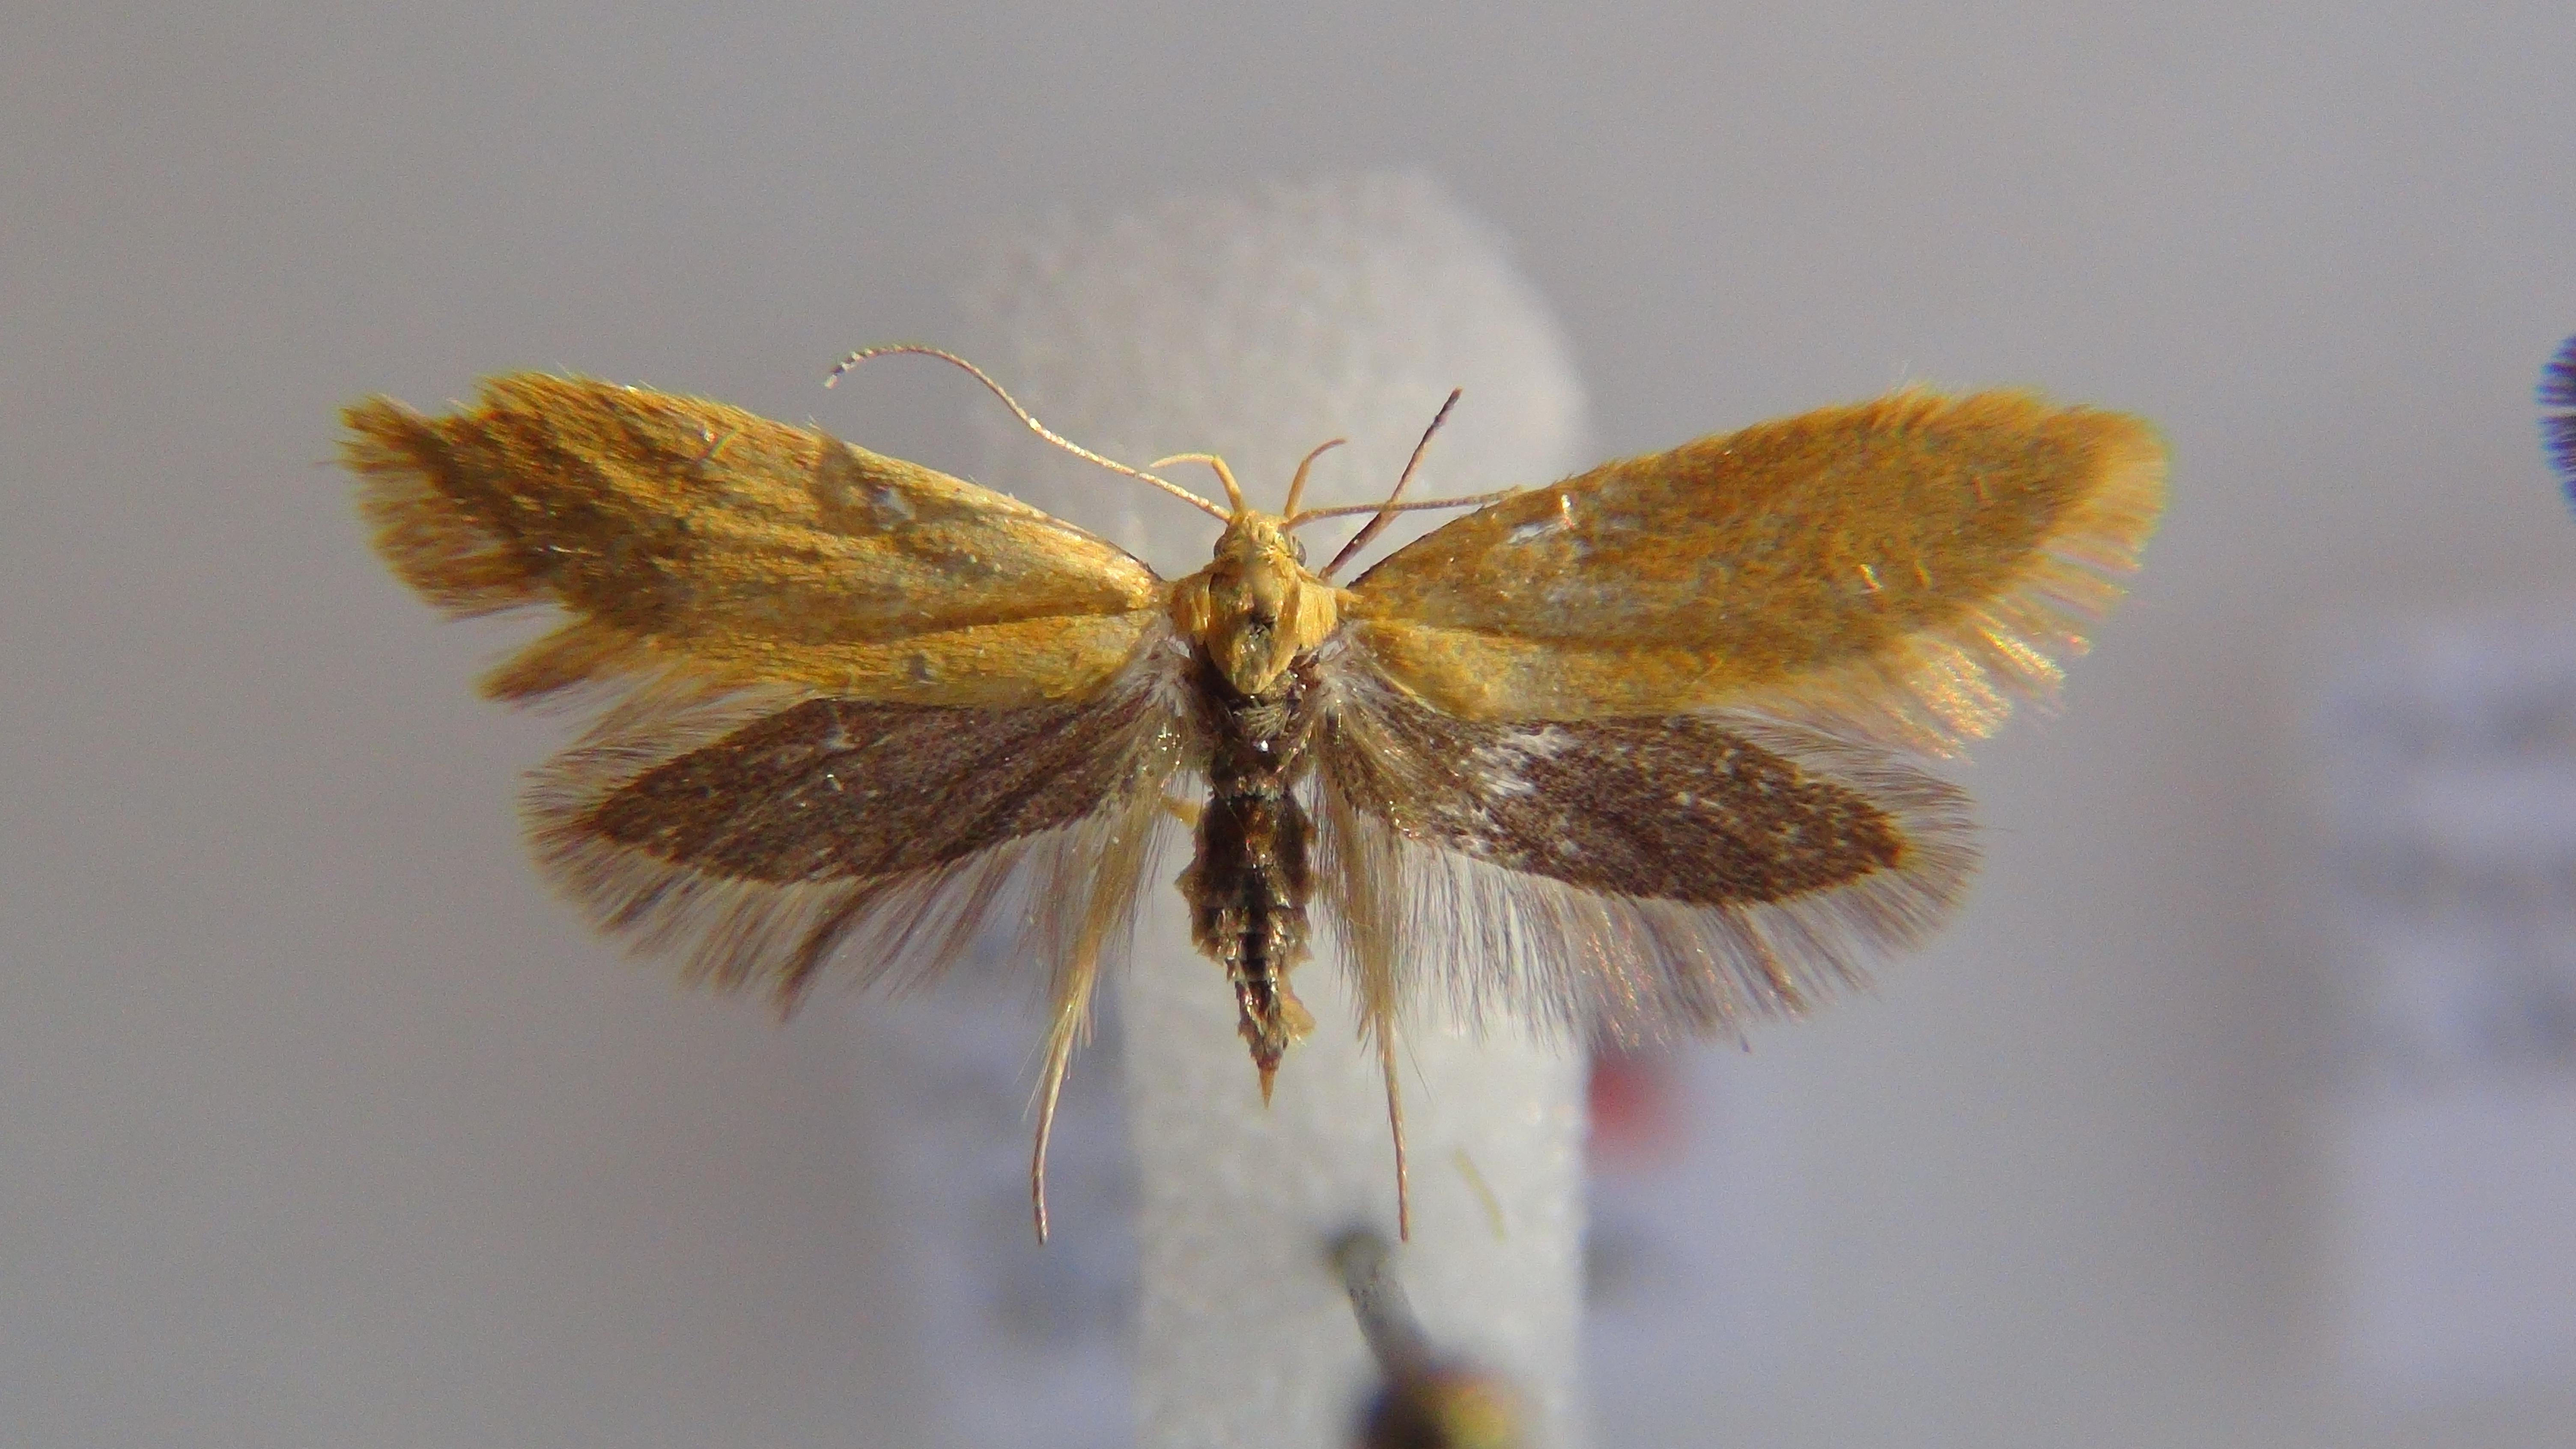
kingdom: Animalia
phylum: Arthropoda
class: Insecta
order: Lepidoptera
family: Oecophoridae
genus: Borkhausenia
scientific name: Borkhausenia Crassa tinctella
